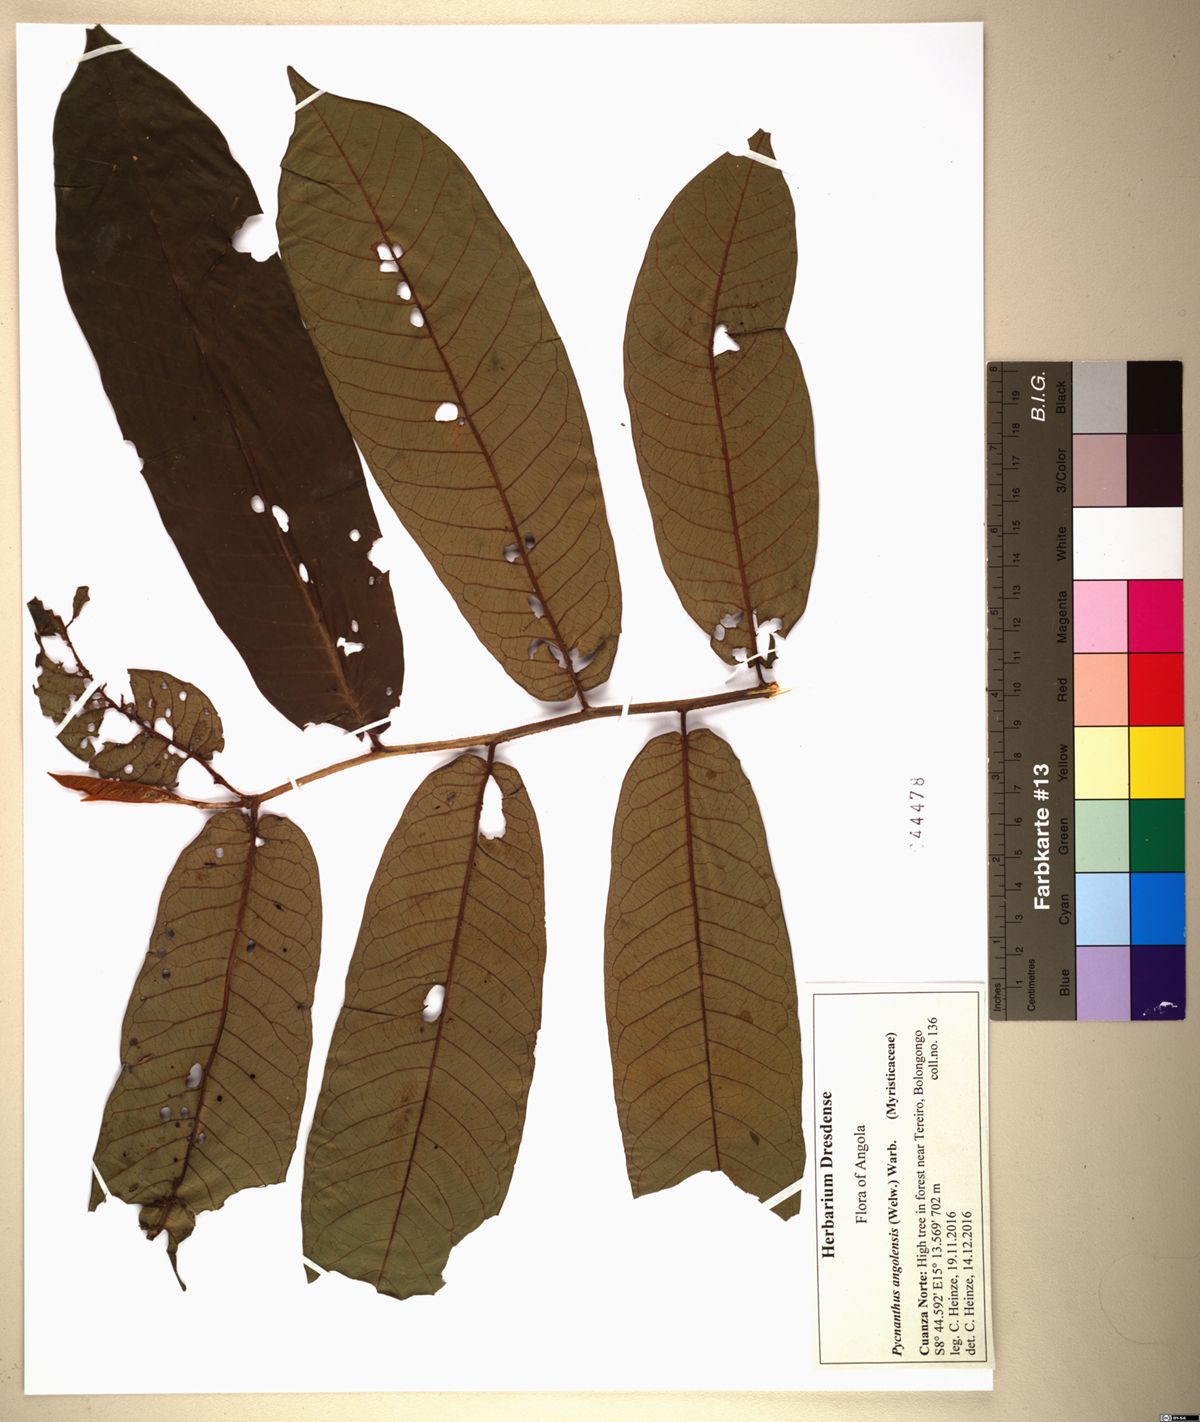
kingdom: Plantae
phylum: Tracheophyta
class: Magnoliopsida
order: Magnoliales
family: Myristicaceae
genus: Pycnanthus
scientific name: Pycnanthus angolensis
